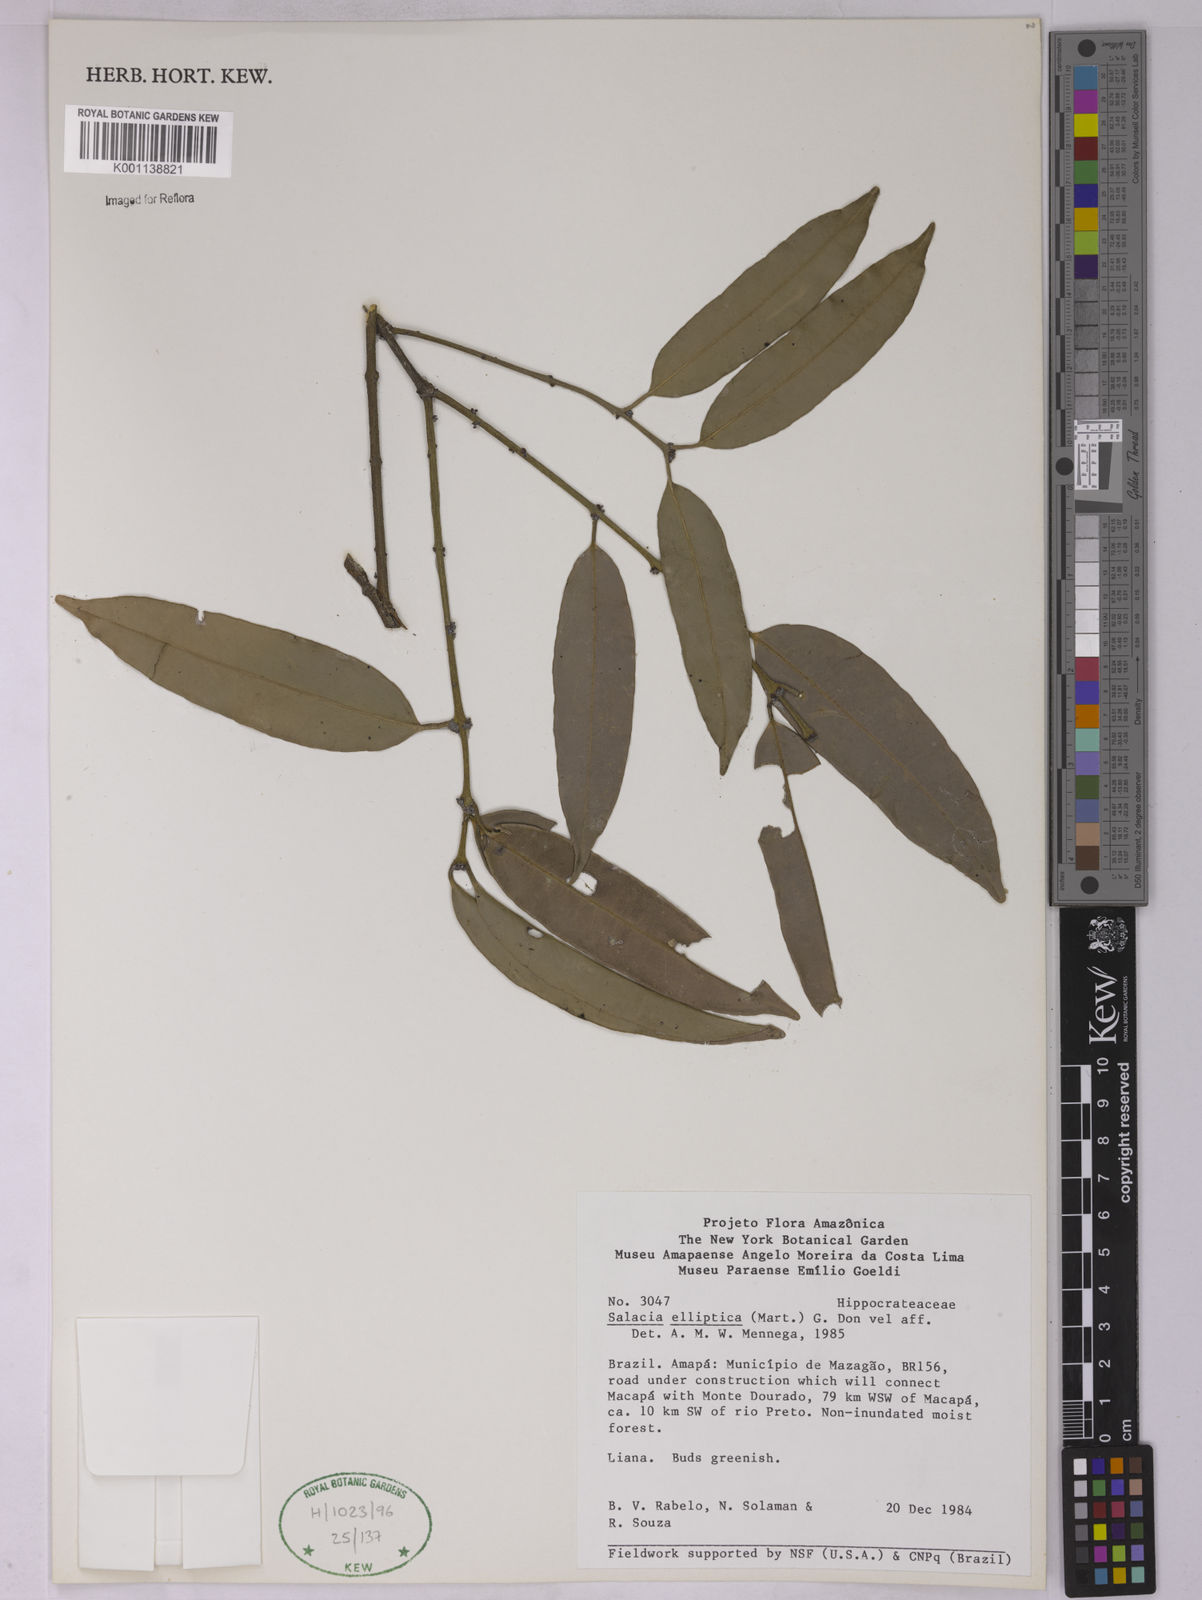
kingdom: Plantae
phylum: Tracheophyta
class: Magnoliopsida
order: Celastrales
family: Celastraceae
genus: Salacia
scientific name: Salacia elliptica
